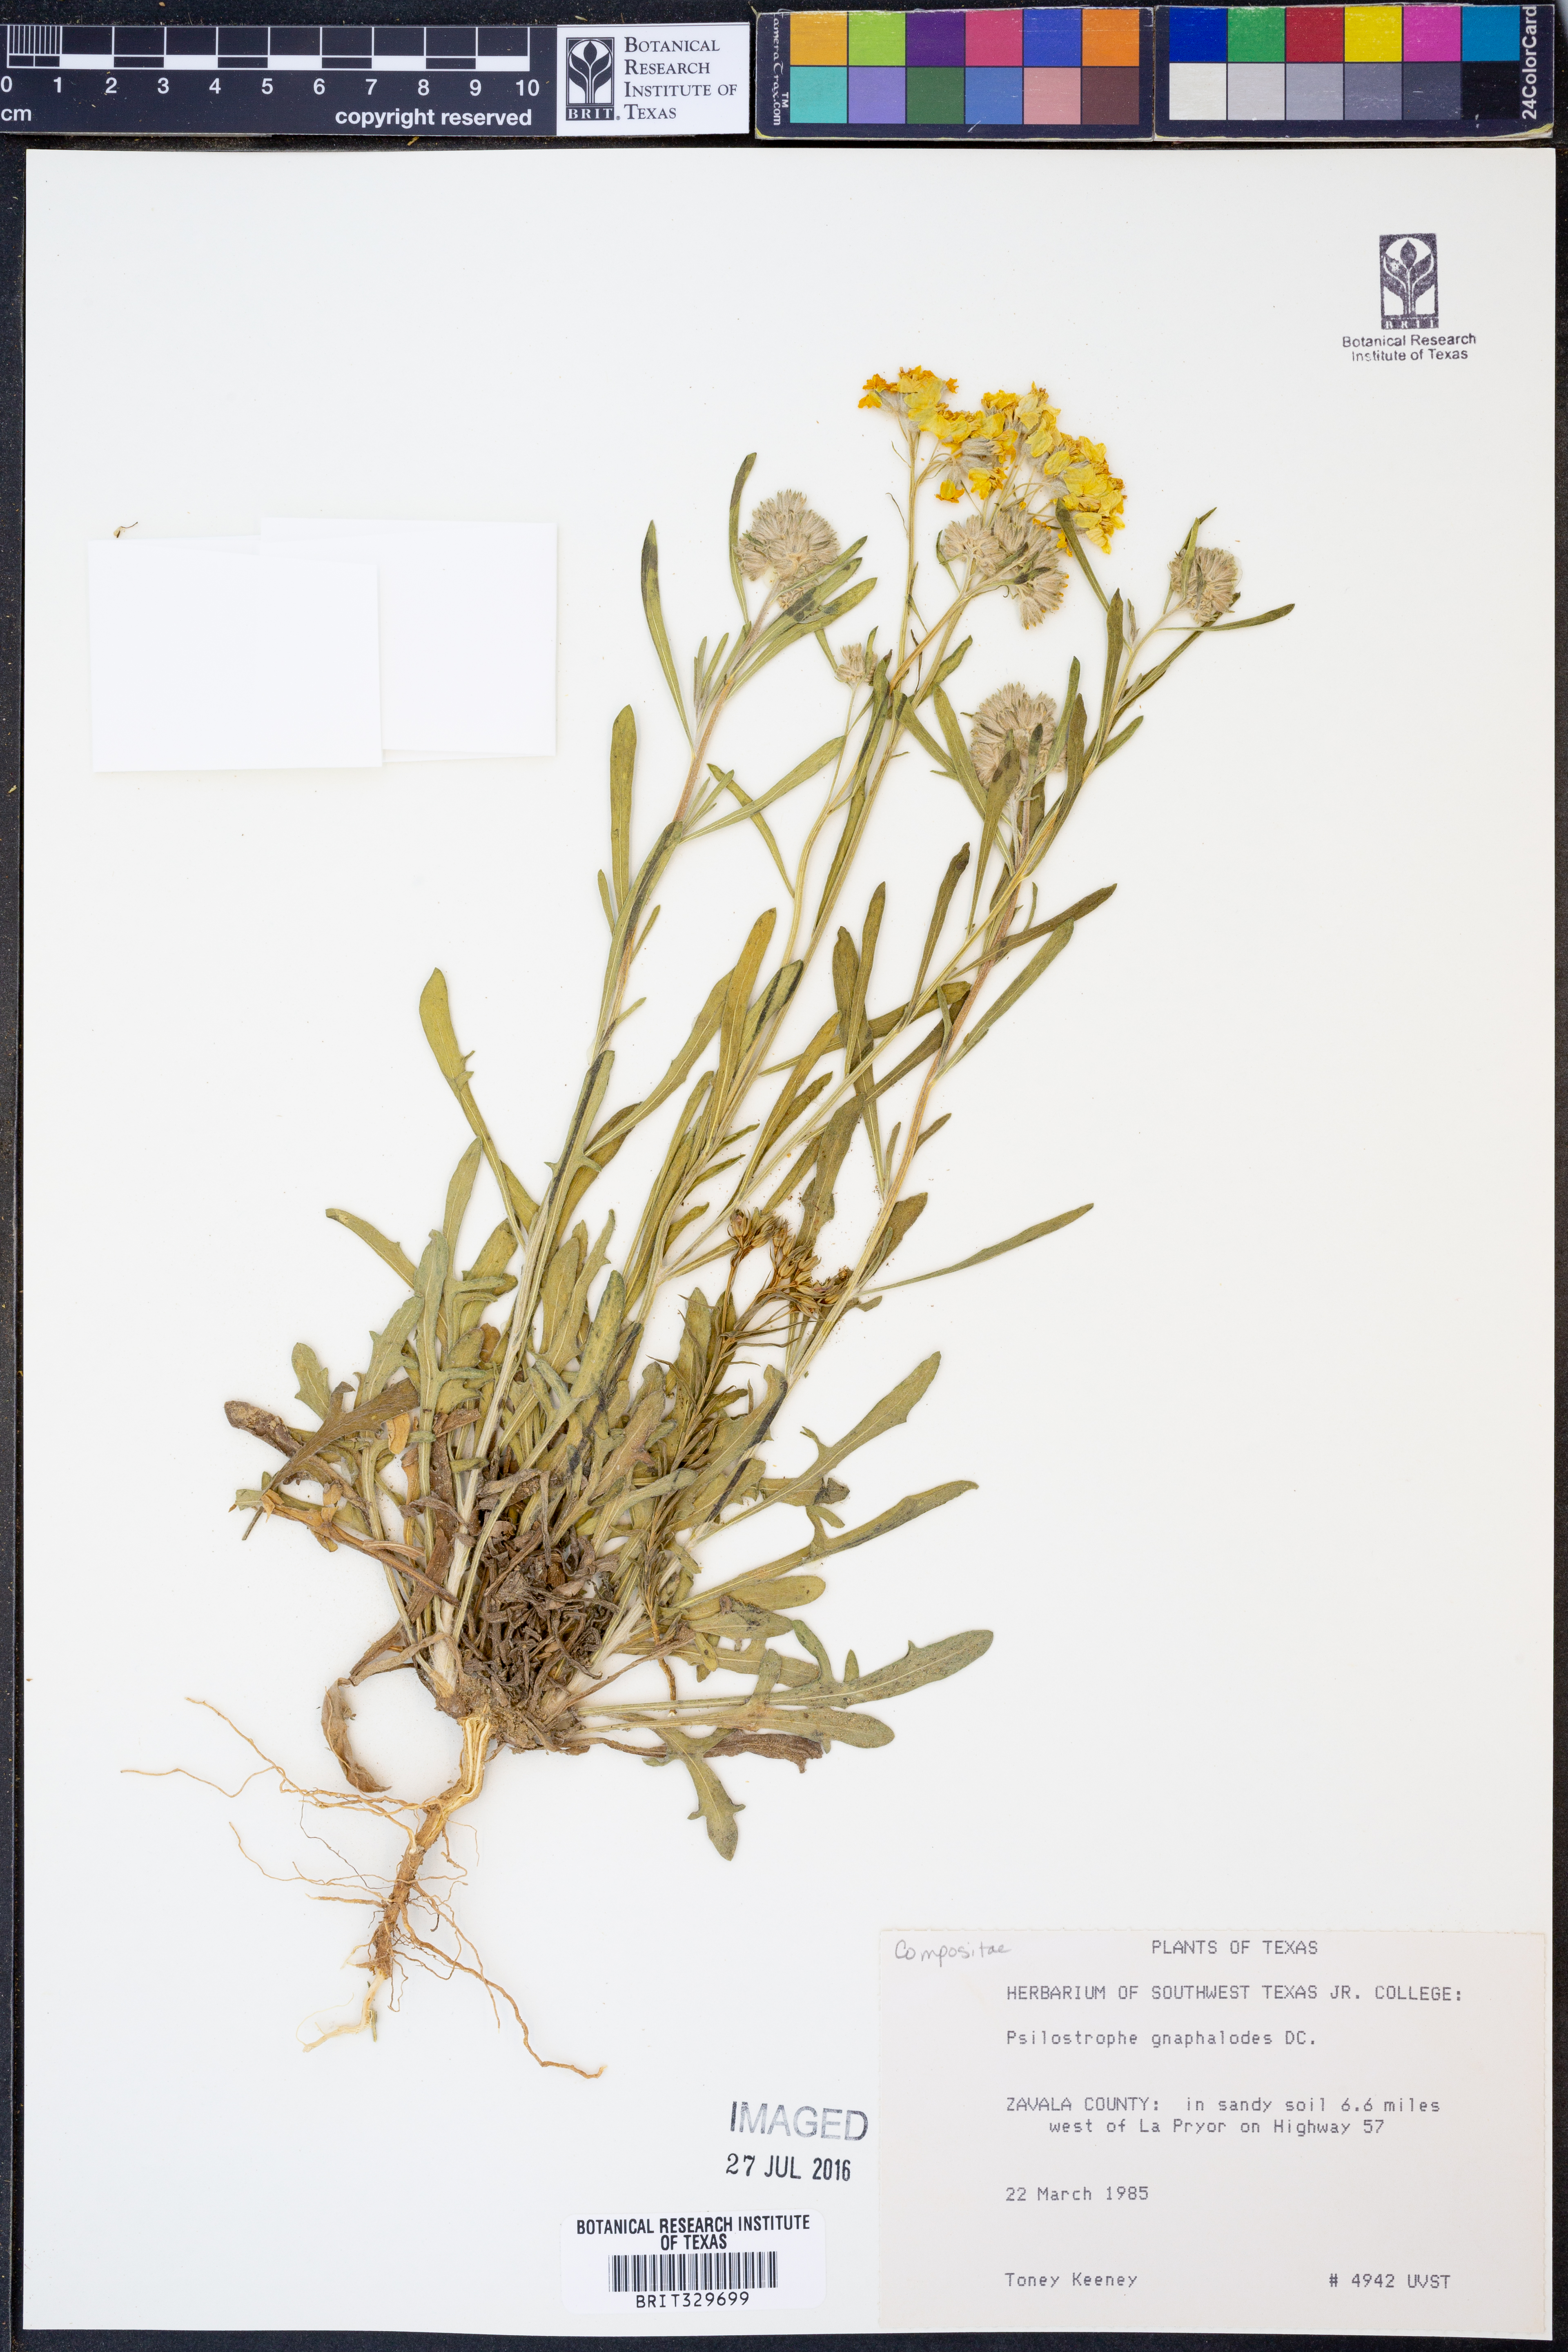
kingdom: Plantae
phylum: Tracheophyta
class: Magnoliopsida
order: Asterales
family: Asteraceae
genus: Psilostrophe
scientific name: Psilostrophe gnaphalioides
